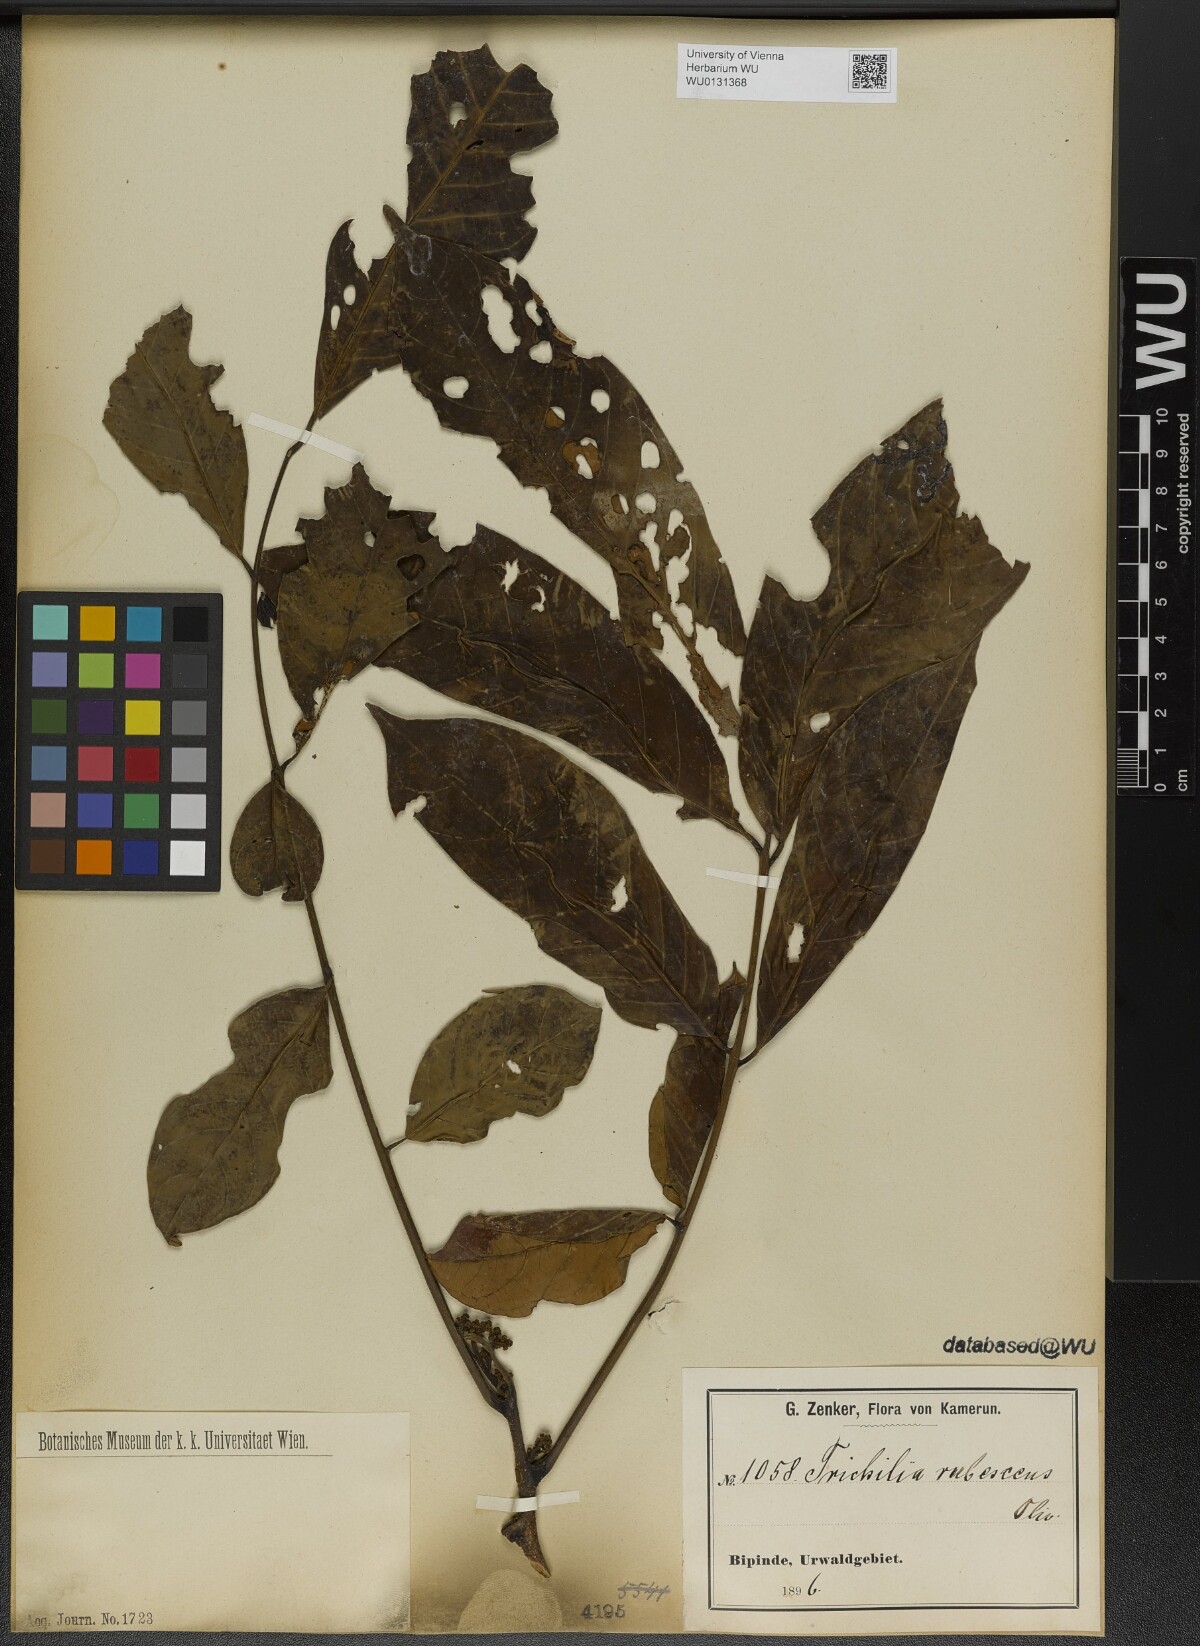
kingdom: Plantae
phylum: Tracheophyta
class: Magnoliopsida
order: Sapindales
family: Meliaceae
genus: Trichilia
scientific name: Trichilia rubescens
